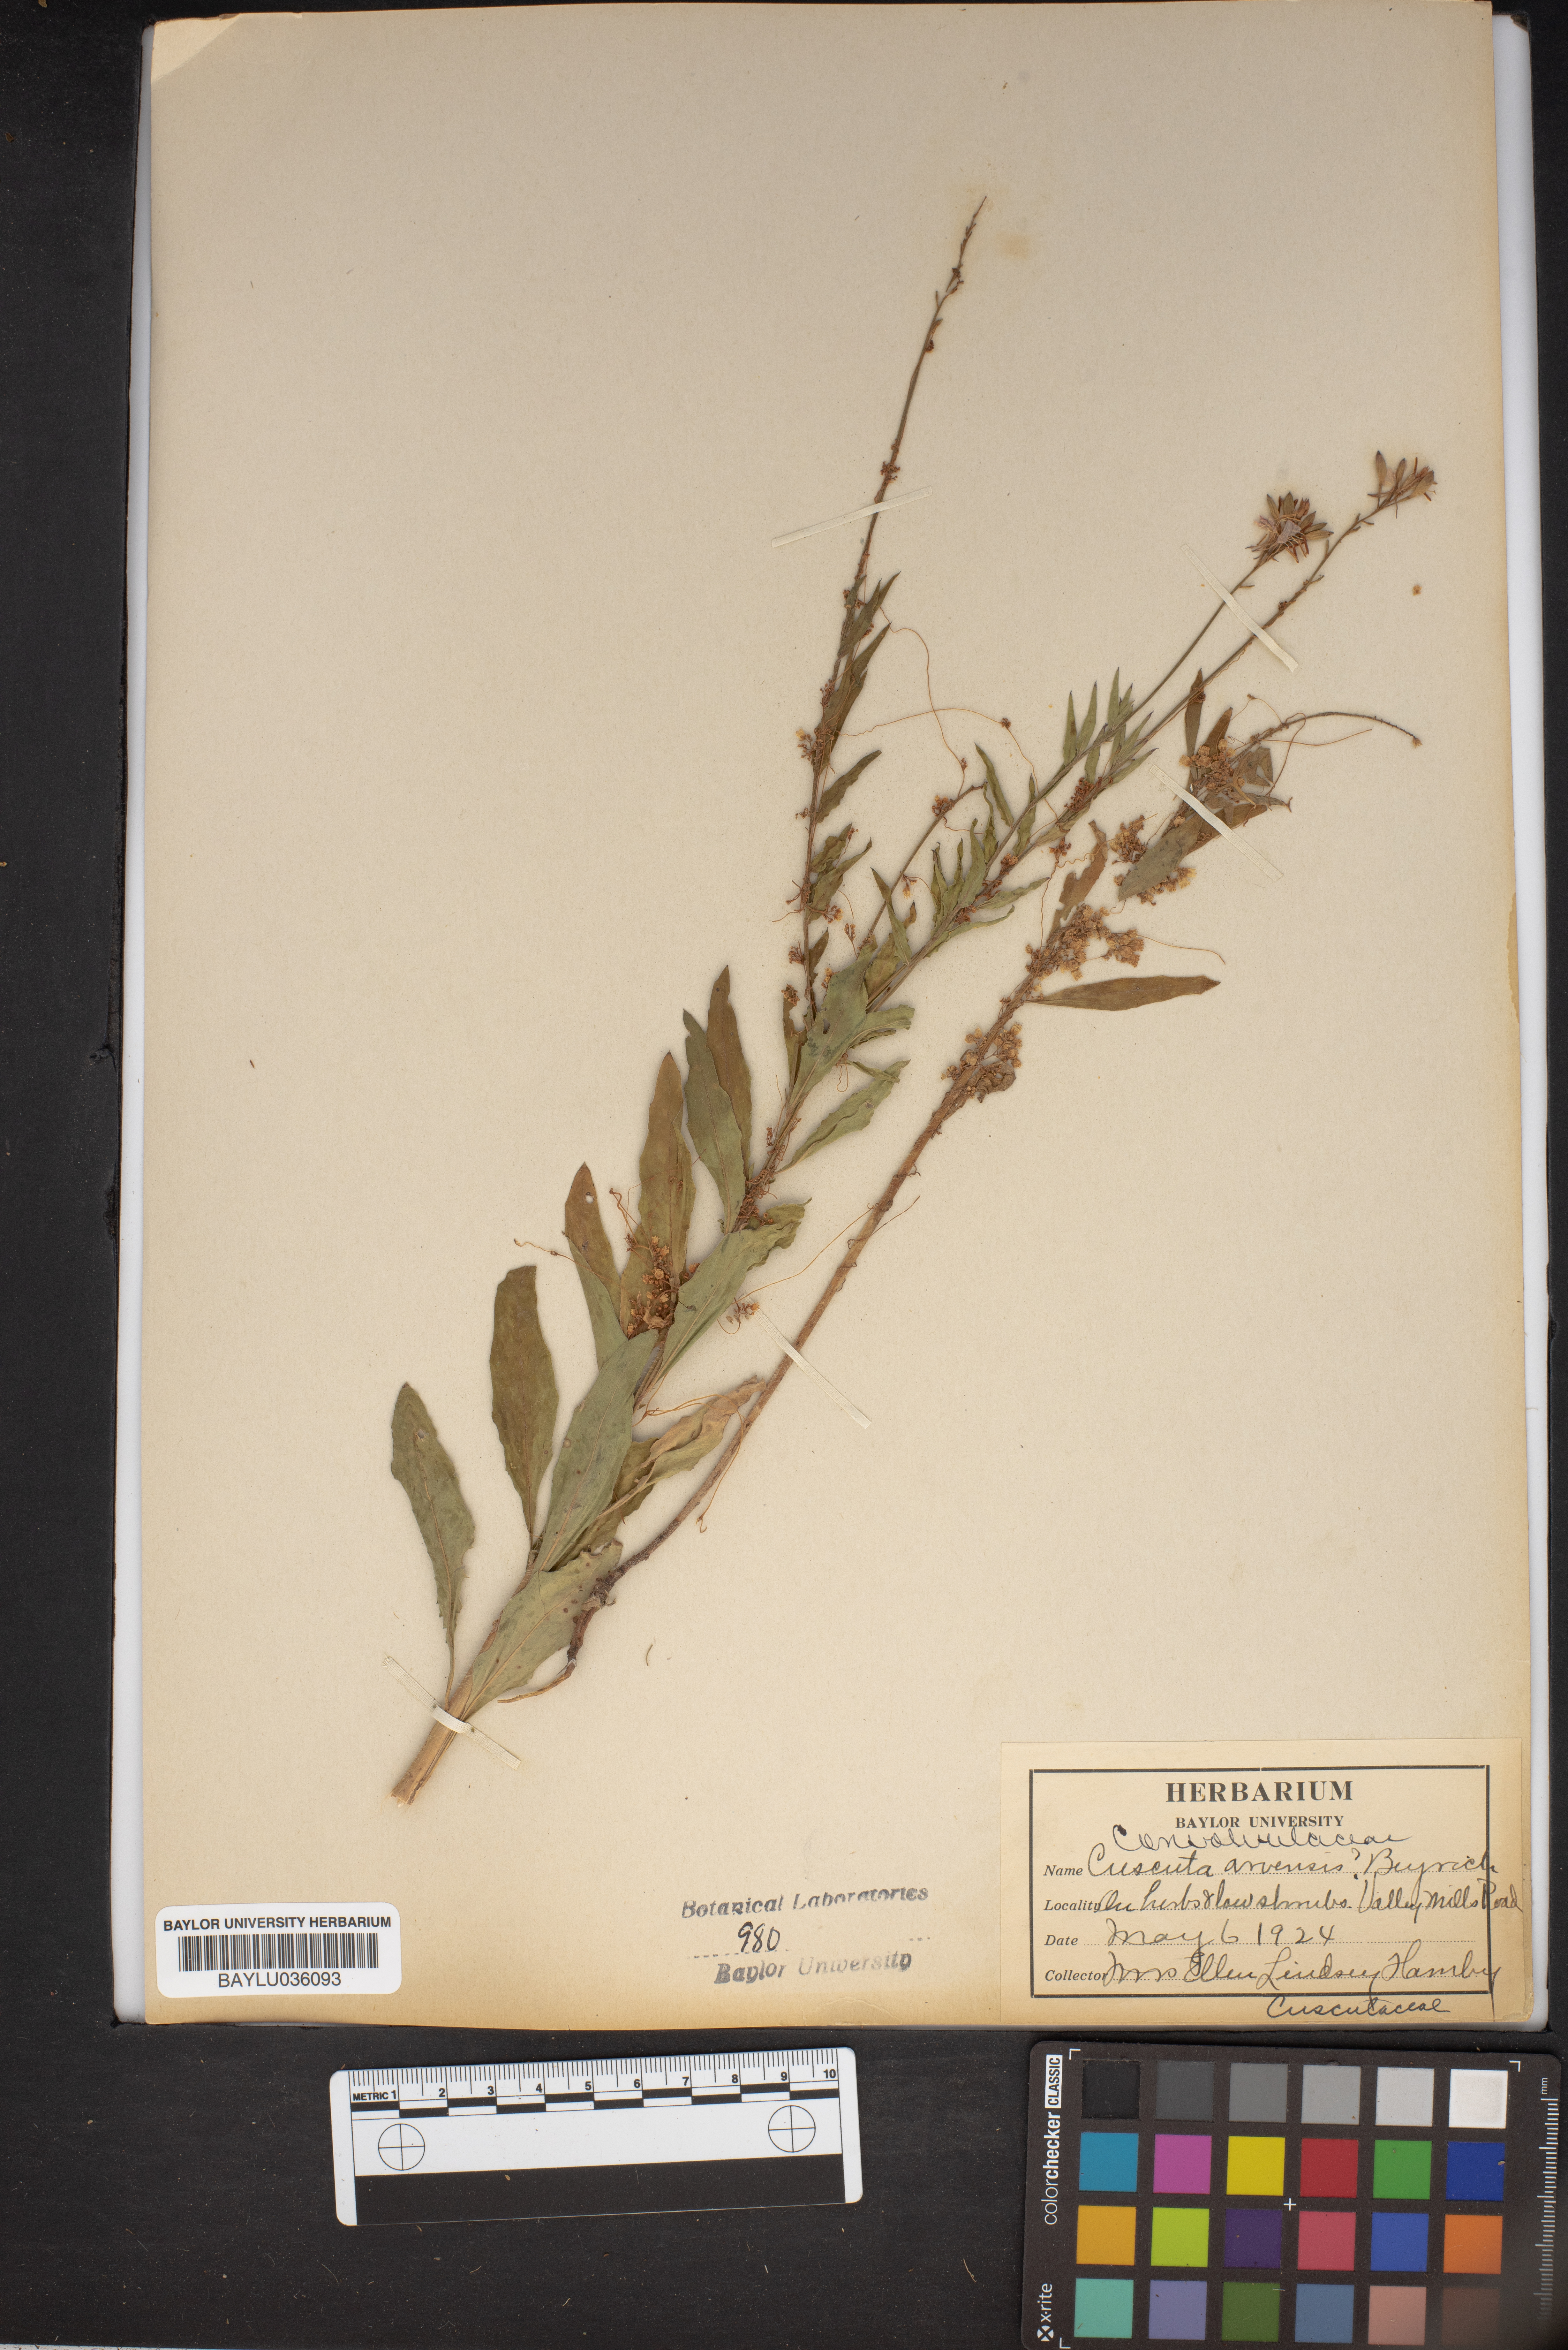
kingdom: Plantae
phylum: Tracheophyta
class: Magnoliopsida
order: Solanales
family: Convolvulaceae
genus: Cuscuta
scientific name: Cuscuta campestris
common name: Yellow dodder
